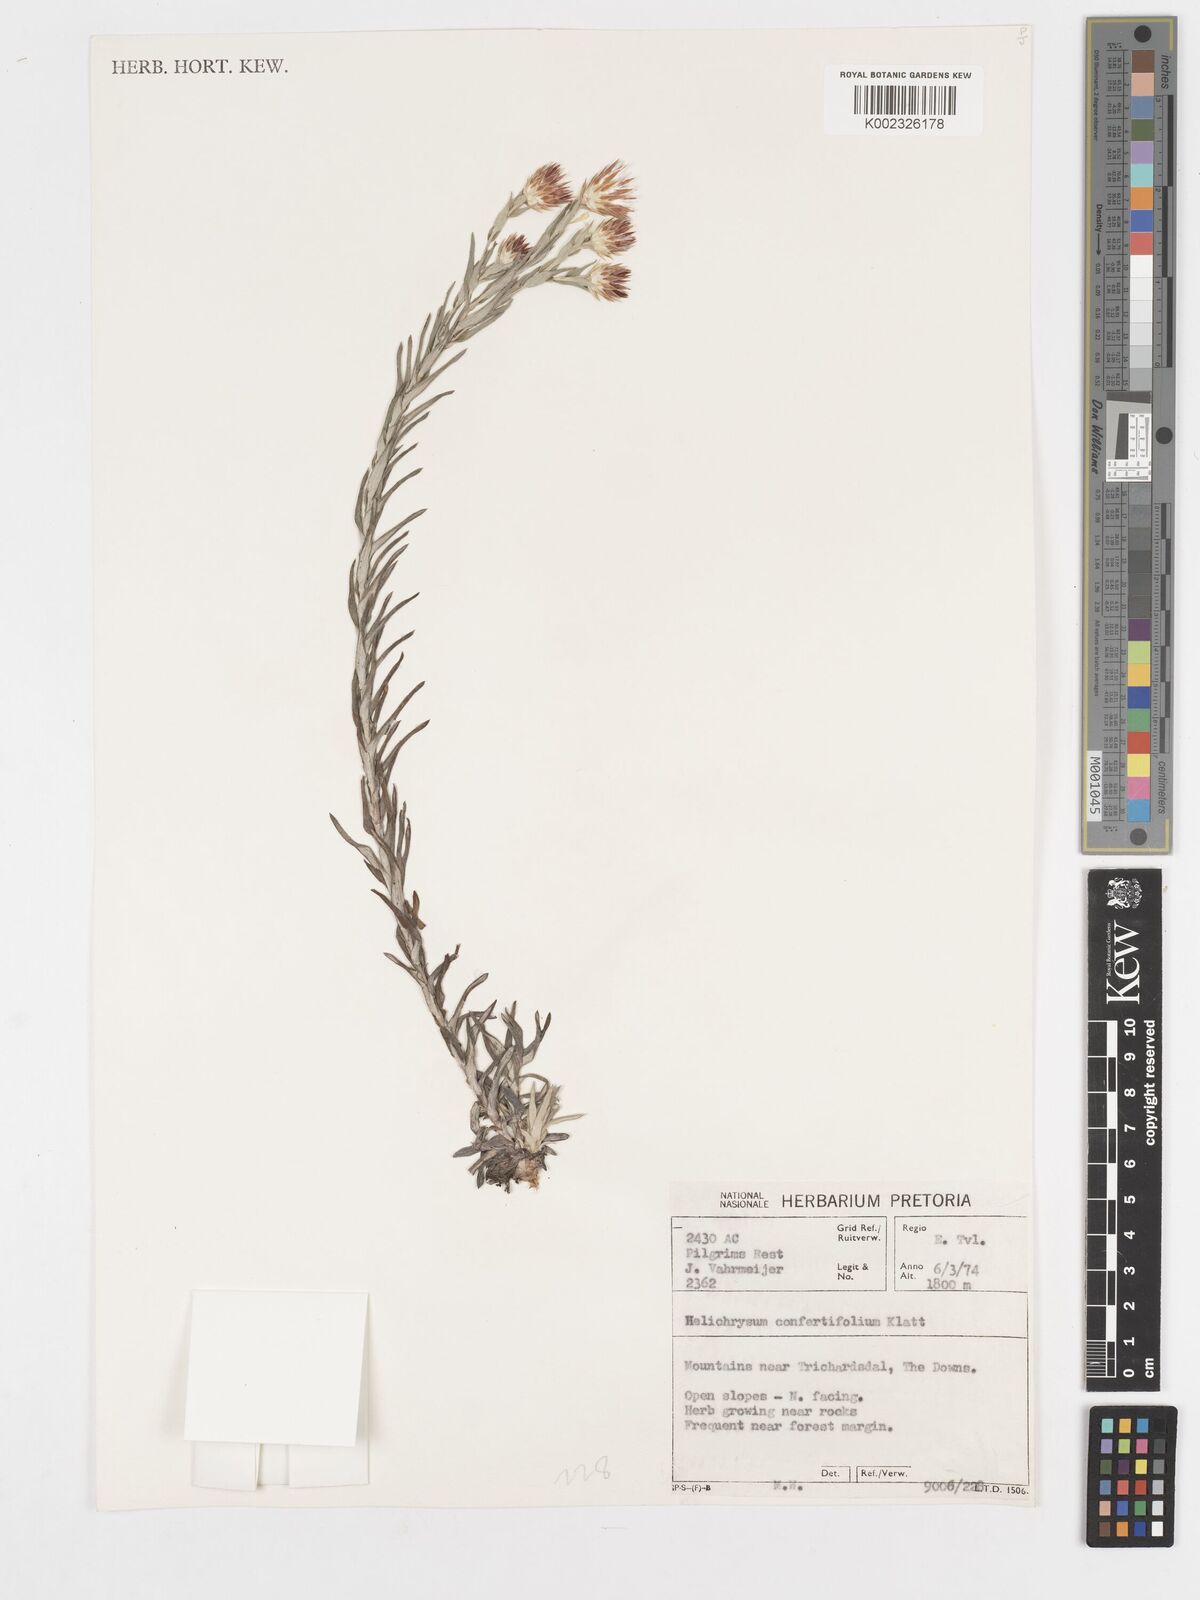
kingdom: Plantae
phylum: Tracheophyta
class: Magnoliopsida
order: Asterales
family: Asteraceae
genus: Helichrysum
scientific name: Helichrysum confertifolium
